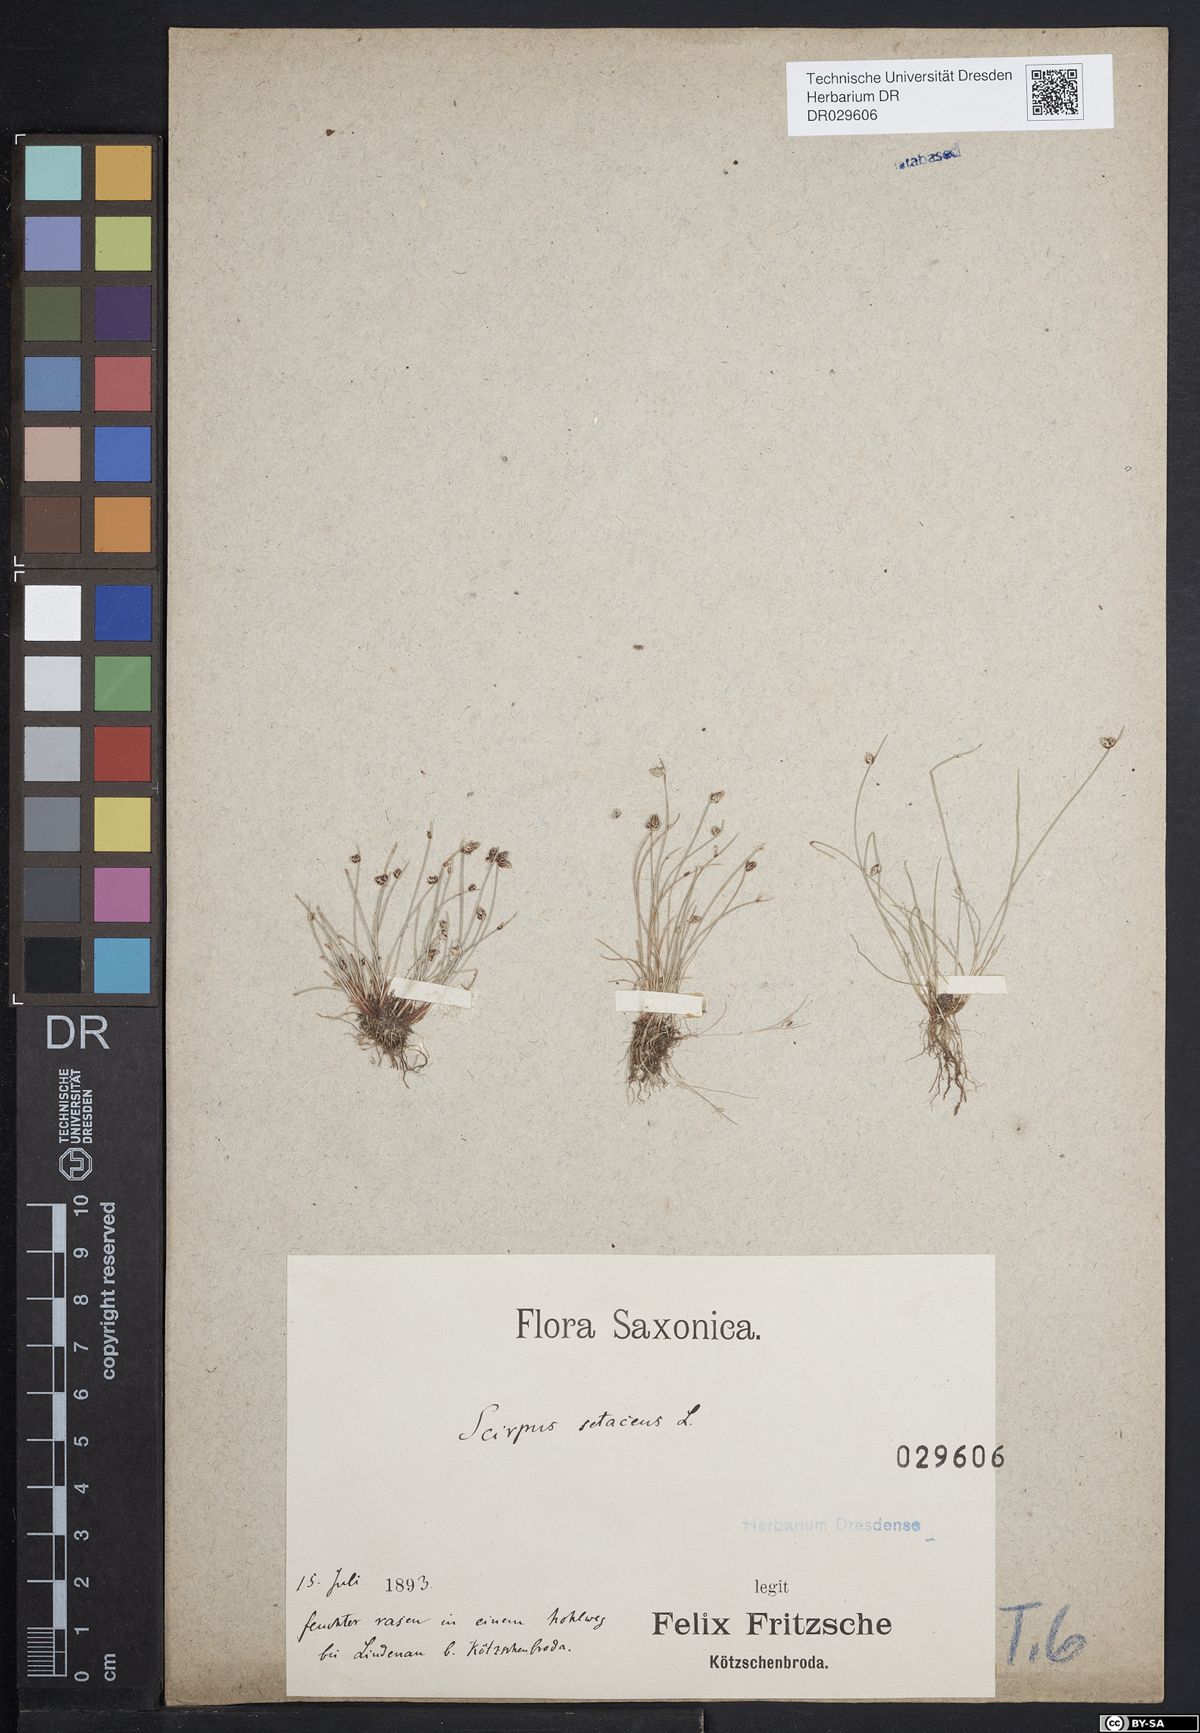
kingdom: Plantae
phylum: Tracheophyta
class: Liliopsida
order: Poales
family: Cyperaceae
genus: Isolepis
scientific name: Isolepis setacea
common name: Bristle club-rush
